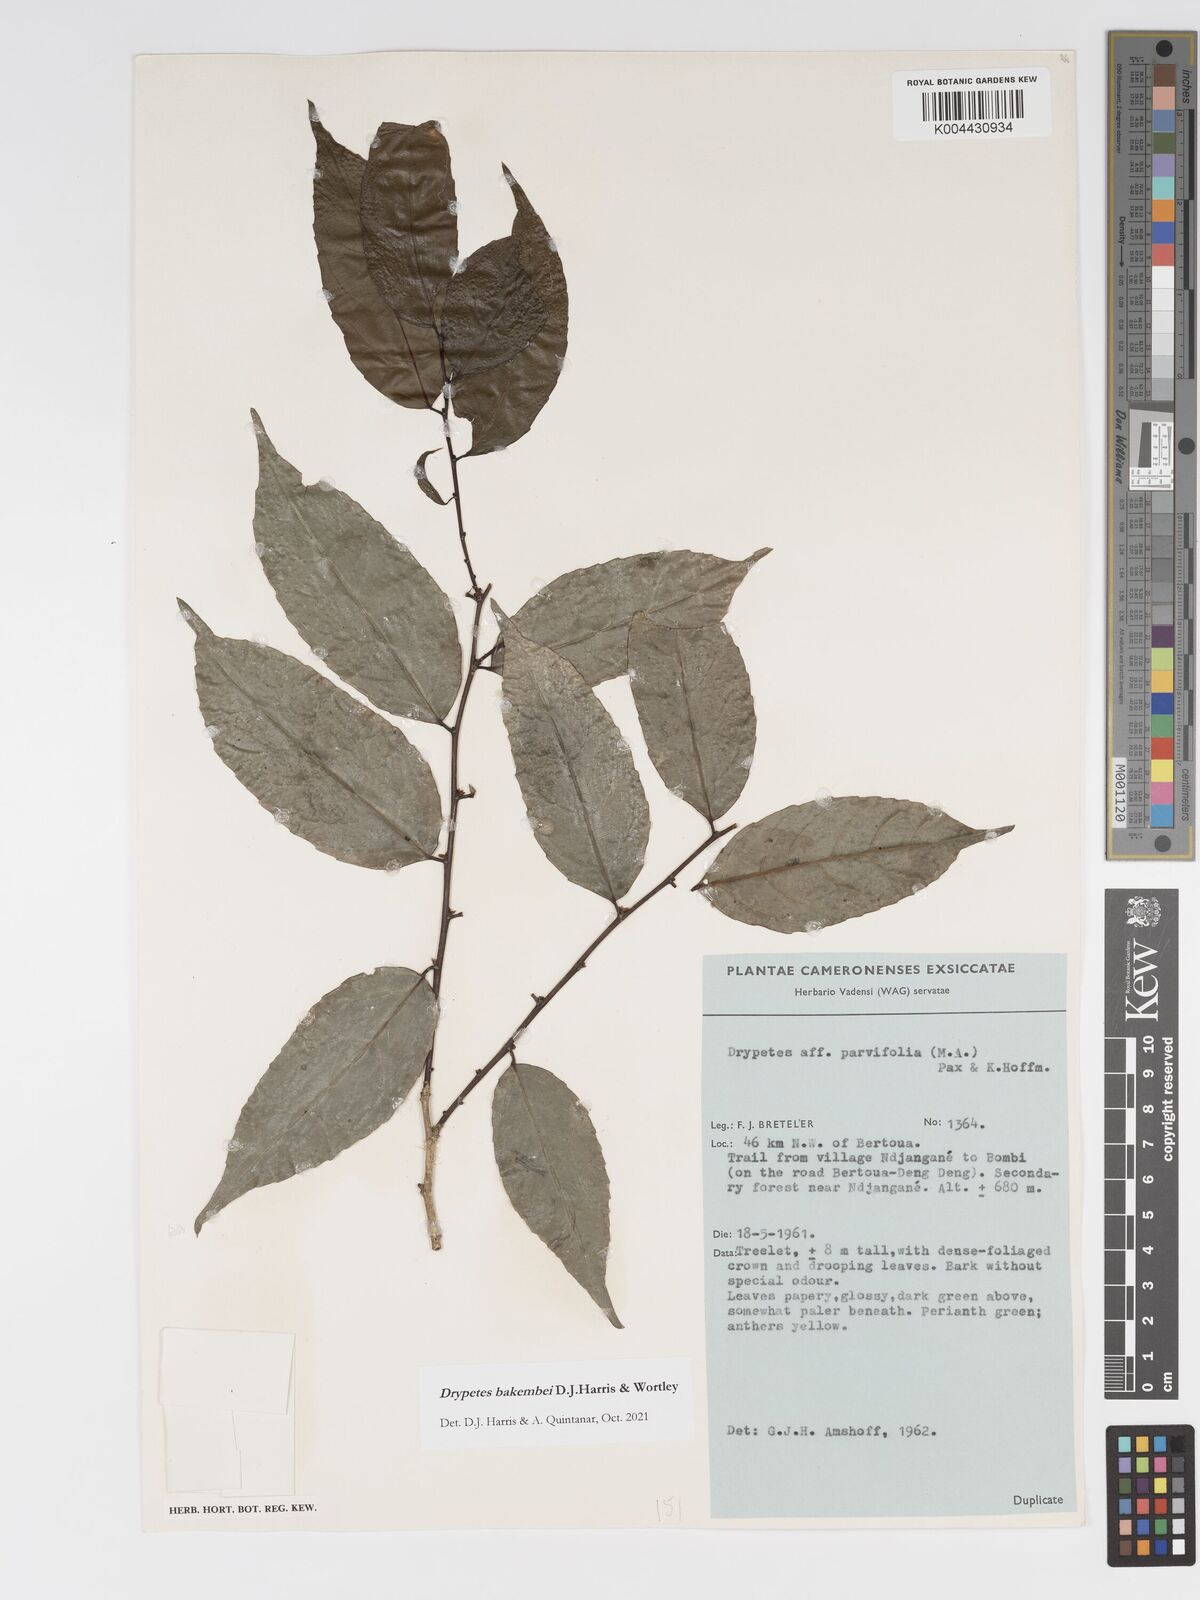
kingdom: Plantae
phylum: Tracheophyta
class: Magnoliopsida
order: Malpighiales
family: Putranjivaceae
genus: Drypetes
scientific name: Drypetes bakembei
